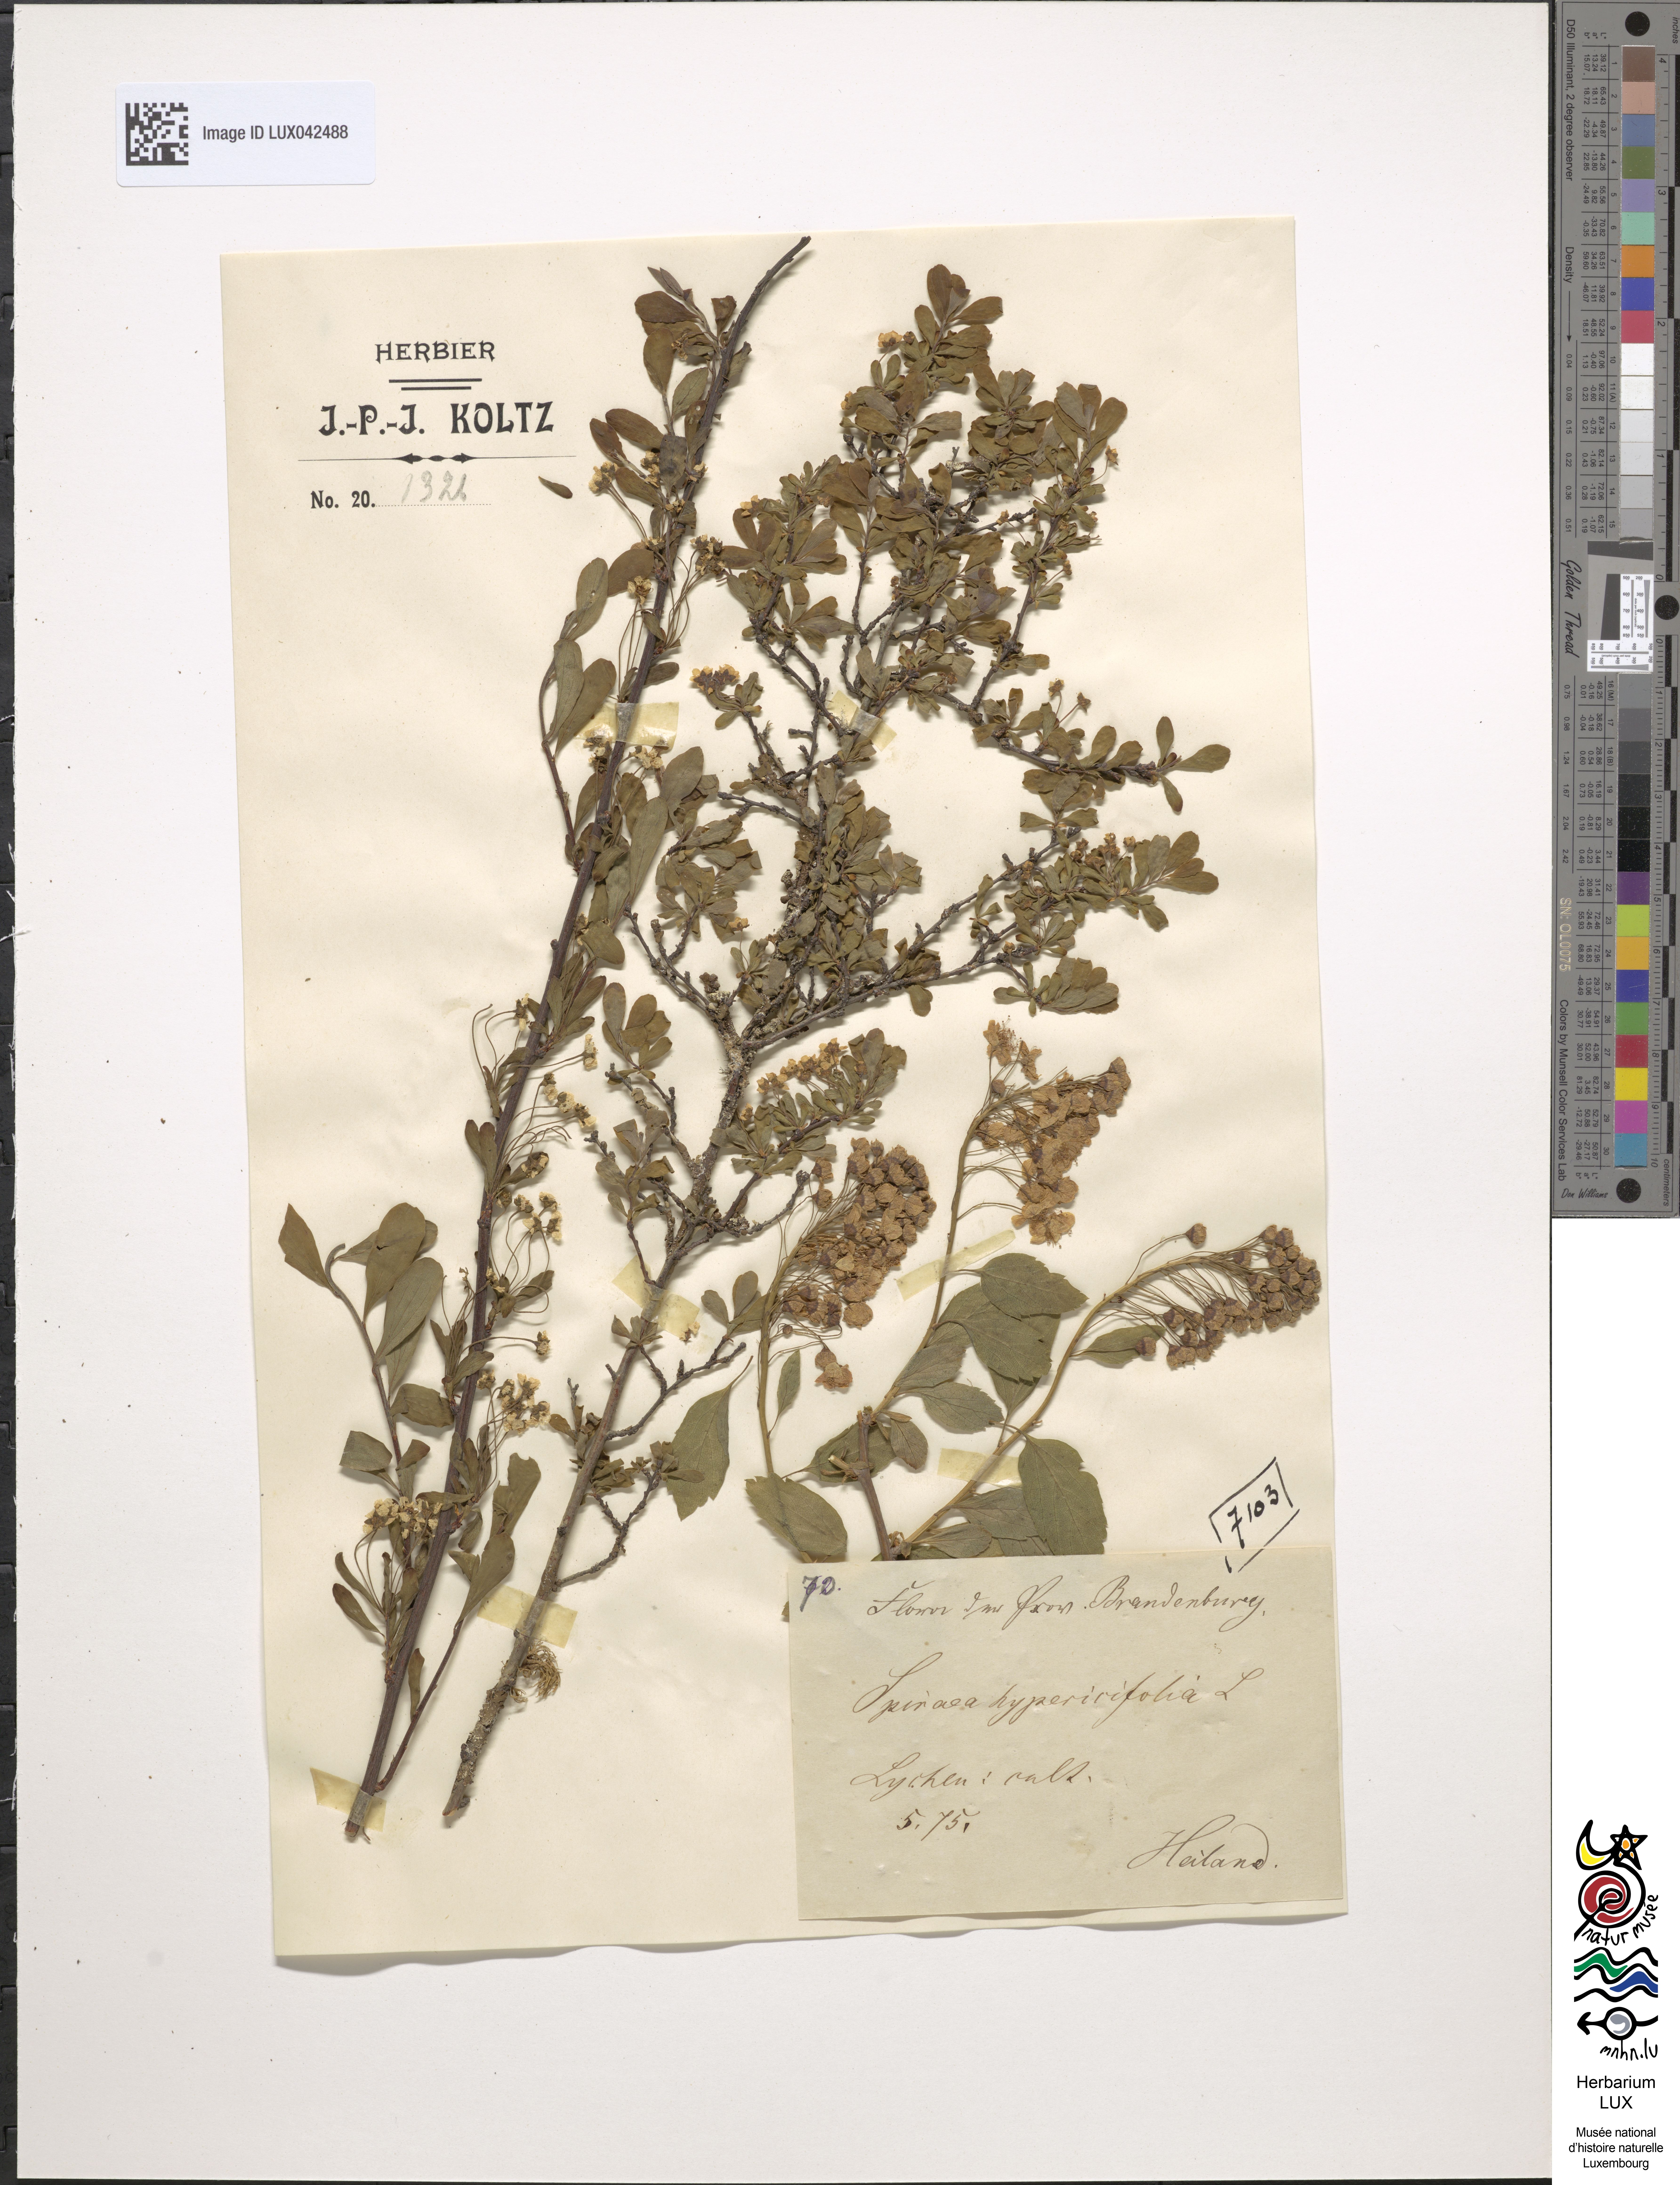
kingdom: Plantae
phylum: Tracheophyta
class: Magnoliopsida
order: Rosales
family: Rosaceae
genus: Spiraea
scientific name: Spiraea hypericifolia
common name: Iberian spirea
